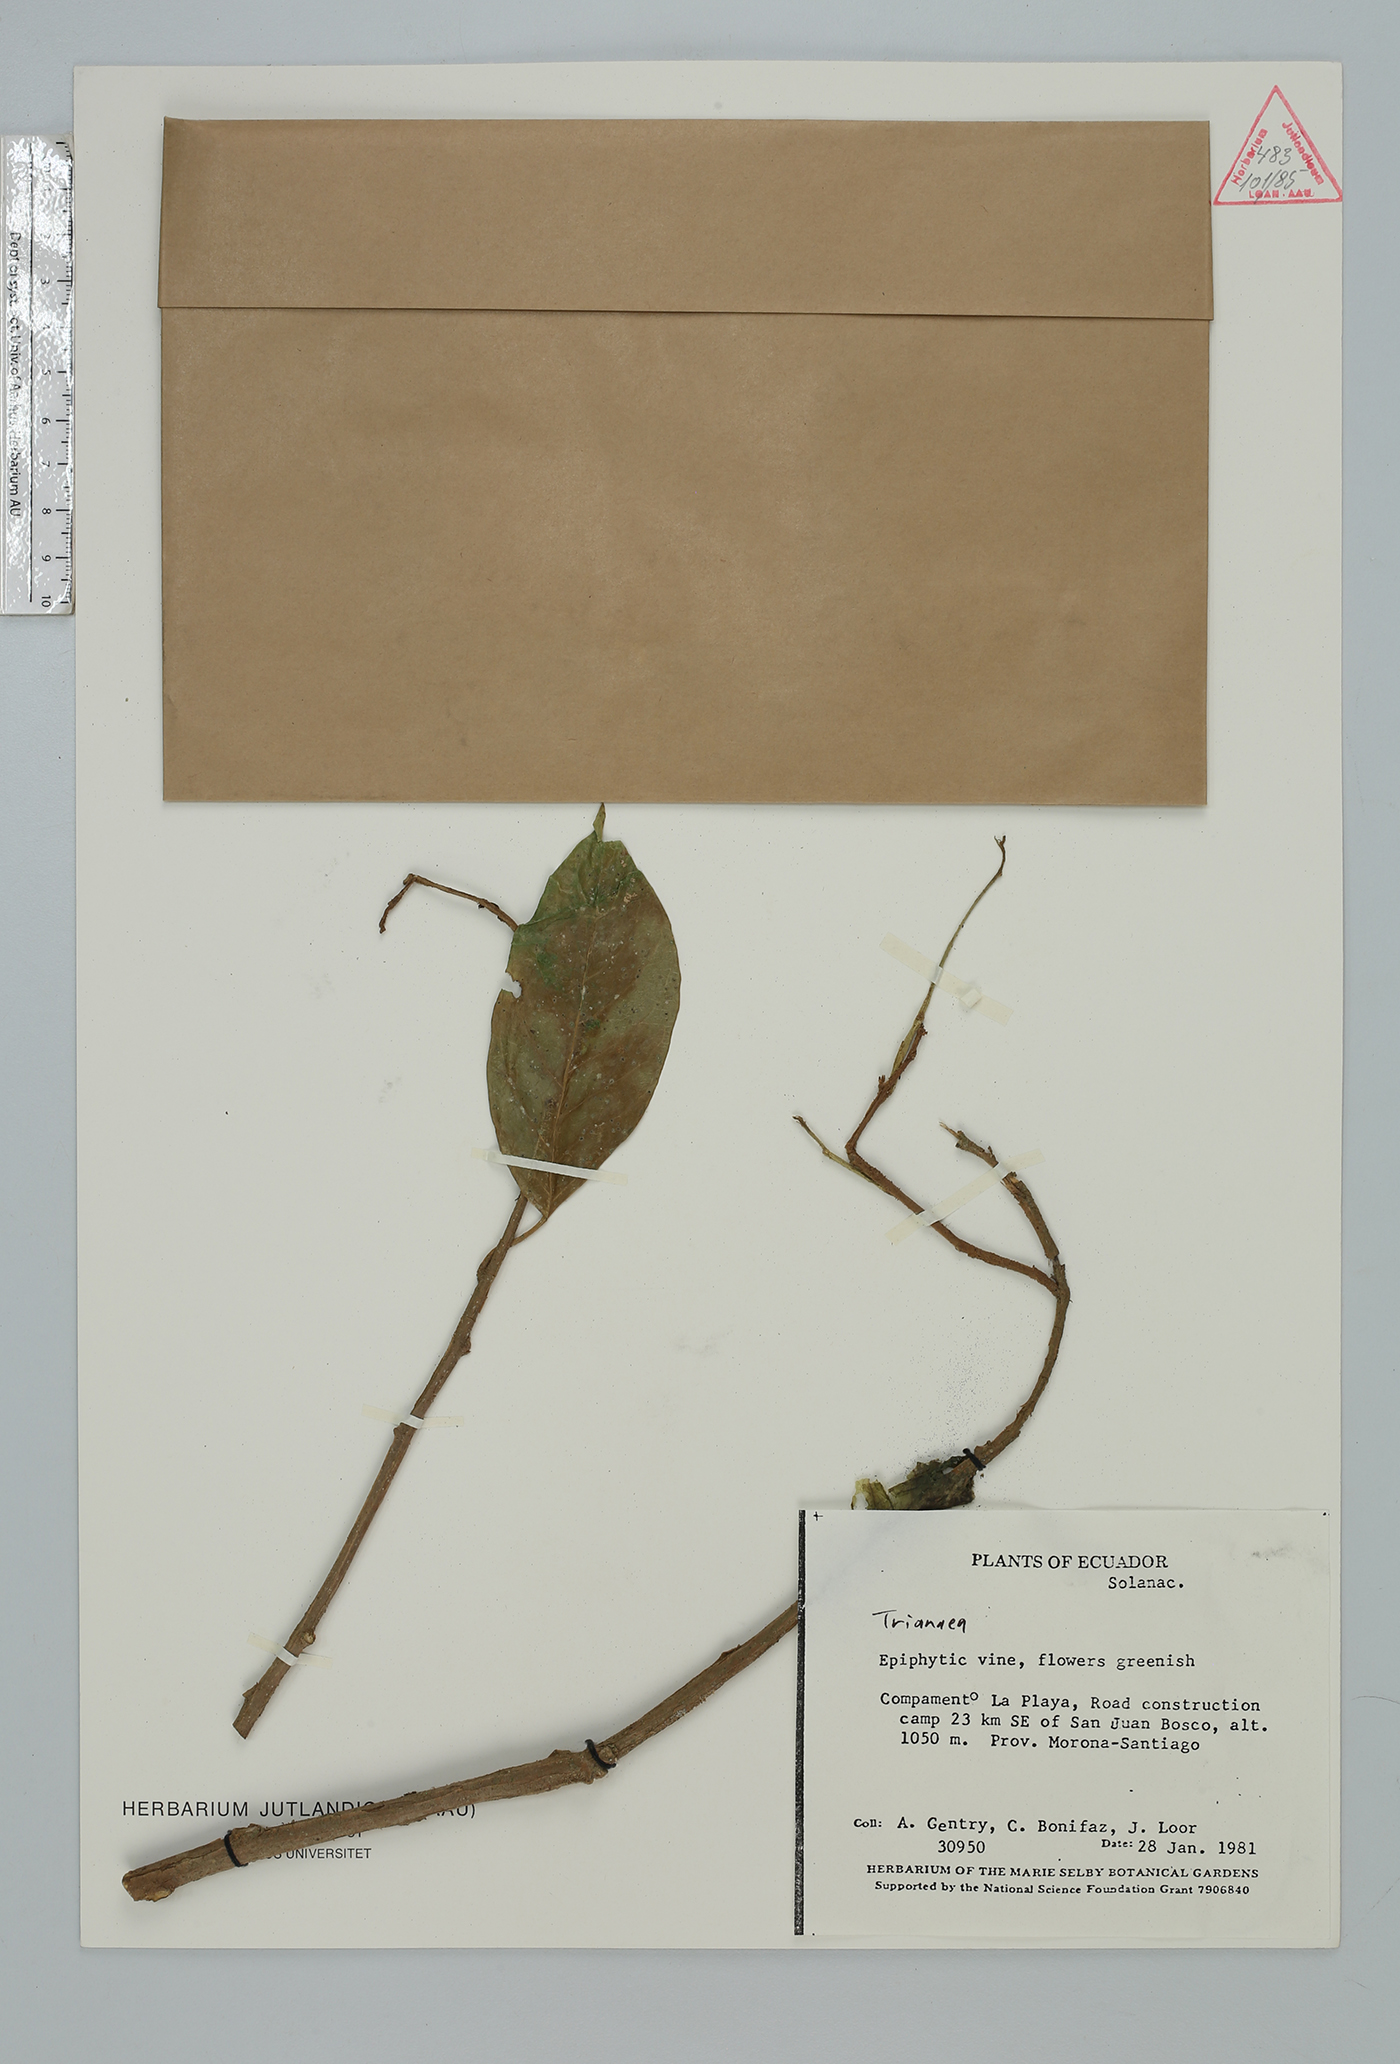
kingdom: Plantae
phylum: Tracheophyta
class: Magnoliopsida
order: Solanales
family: Solanaceae
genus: Trianaea
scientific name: Trianaea
